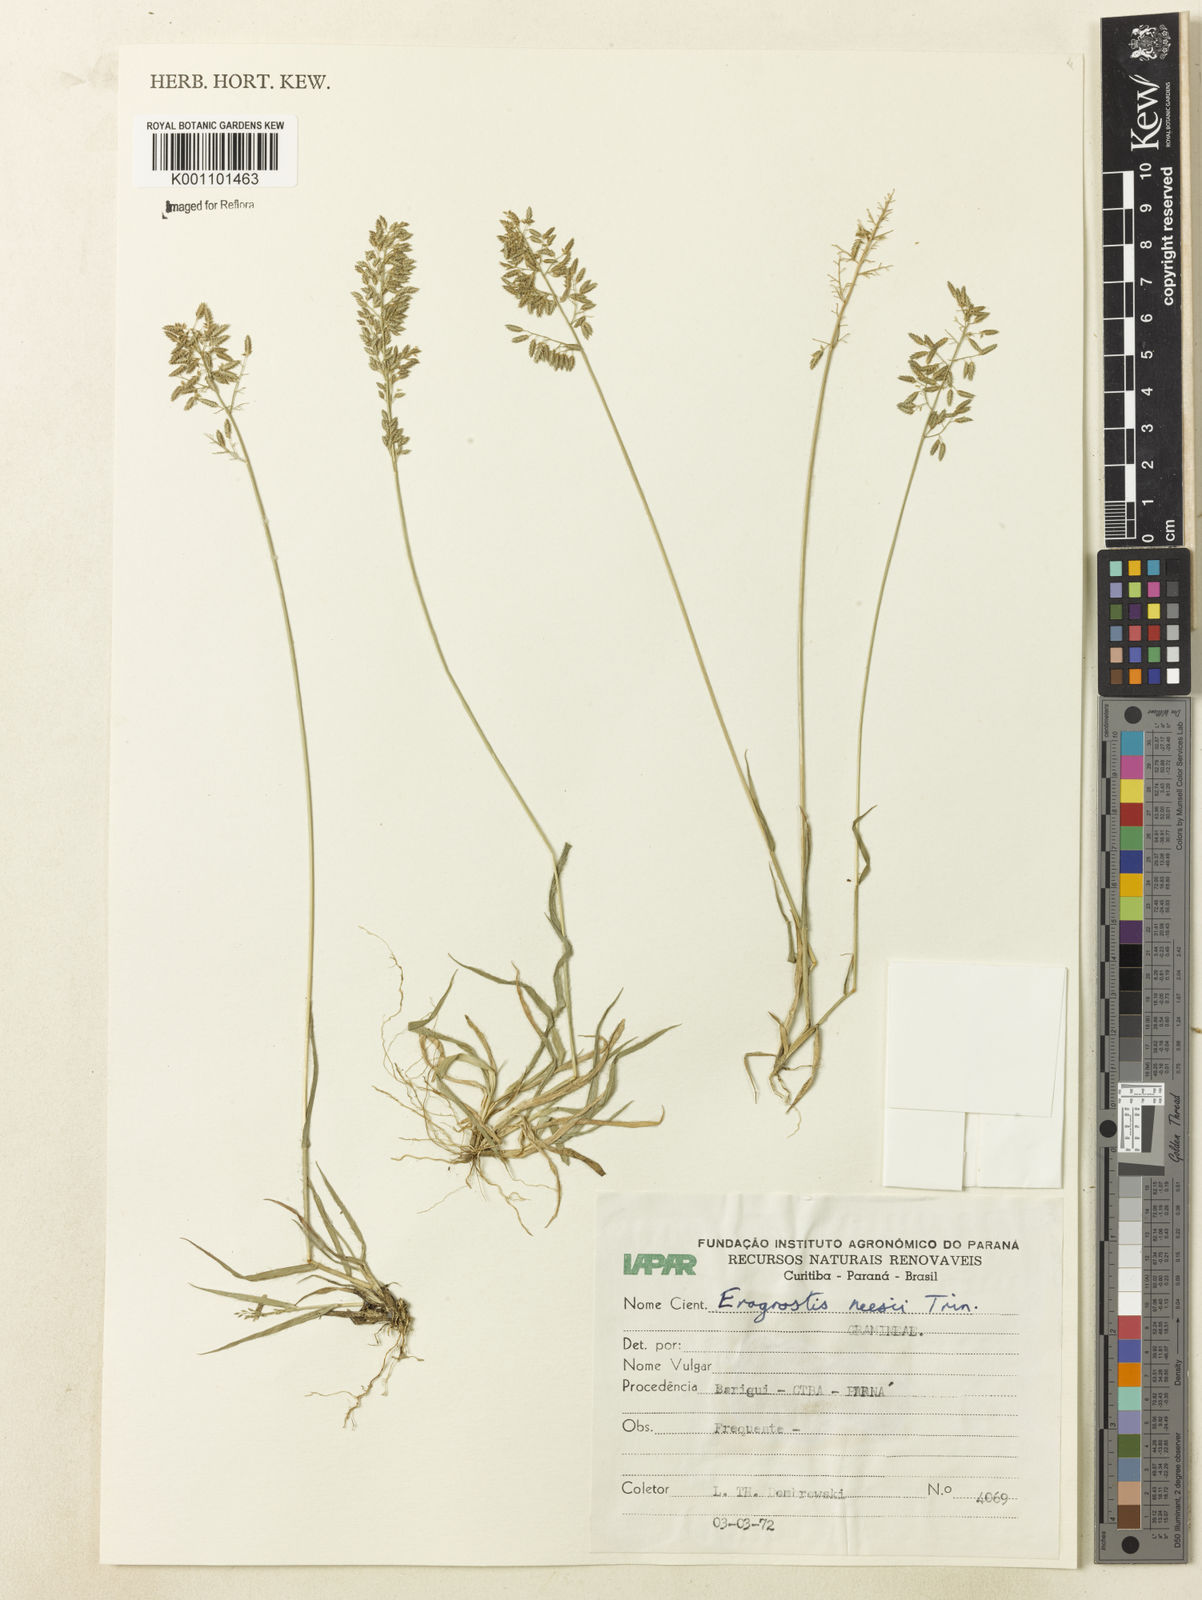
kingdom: Plantae
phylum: Tracheophyta
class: Liliopsida
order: Poales
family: Poaceae
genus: Eragrostis
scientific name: Eragrostis neesii
